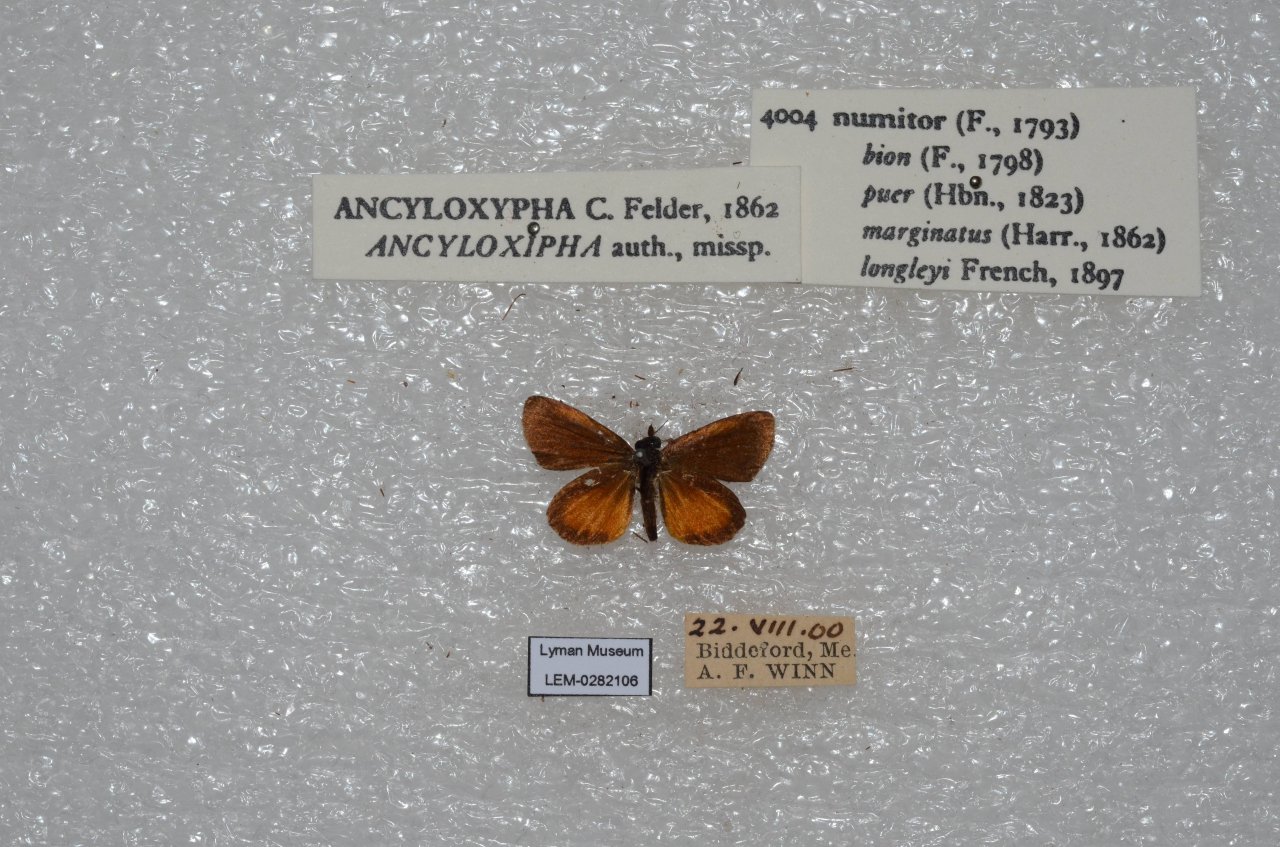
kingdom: Animalia
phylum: Arthropoda
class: Insecta
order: Lepidoptera
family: Hesperiidae
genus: Ancyloxypha
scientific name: Ancyloxypha numitor
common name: Least Skipper
